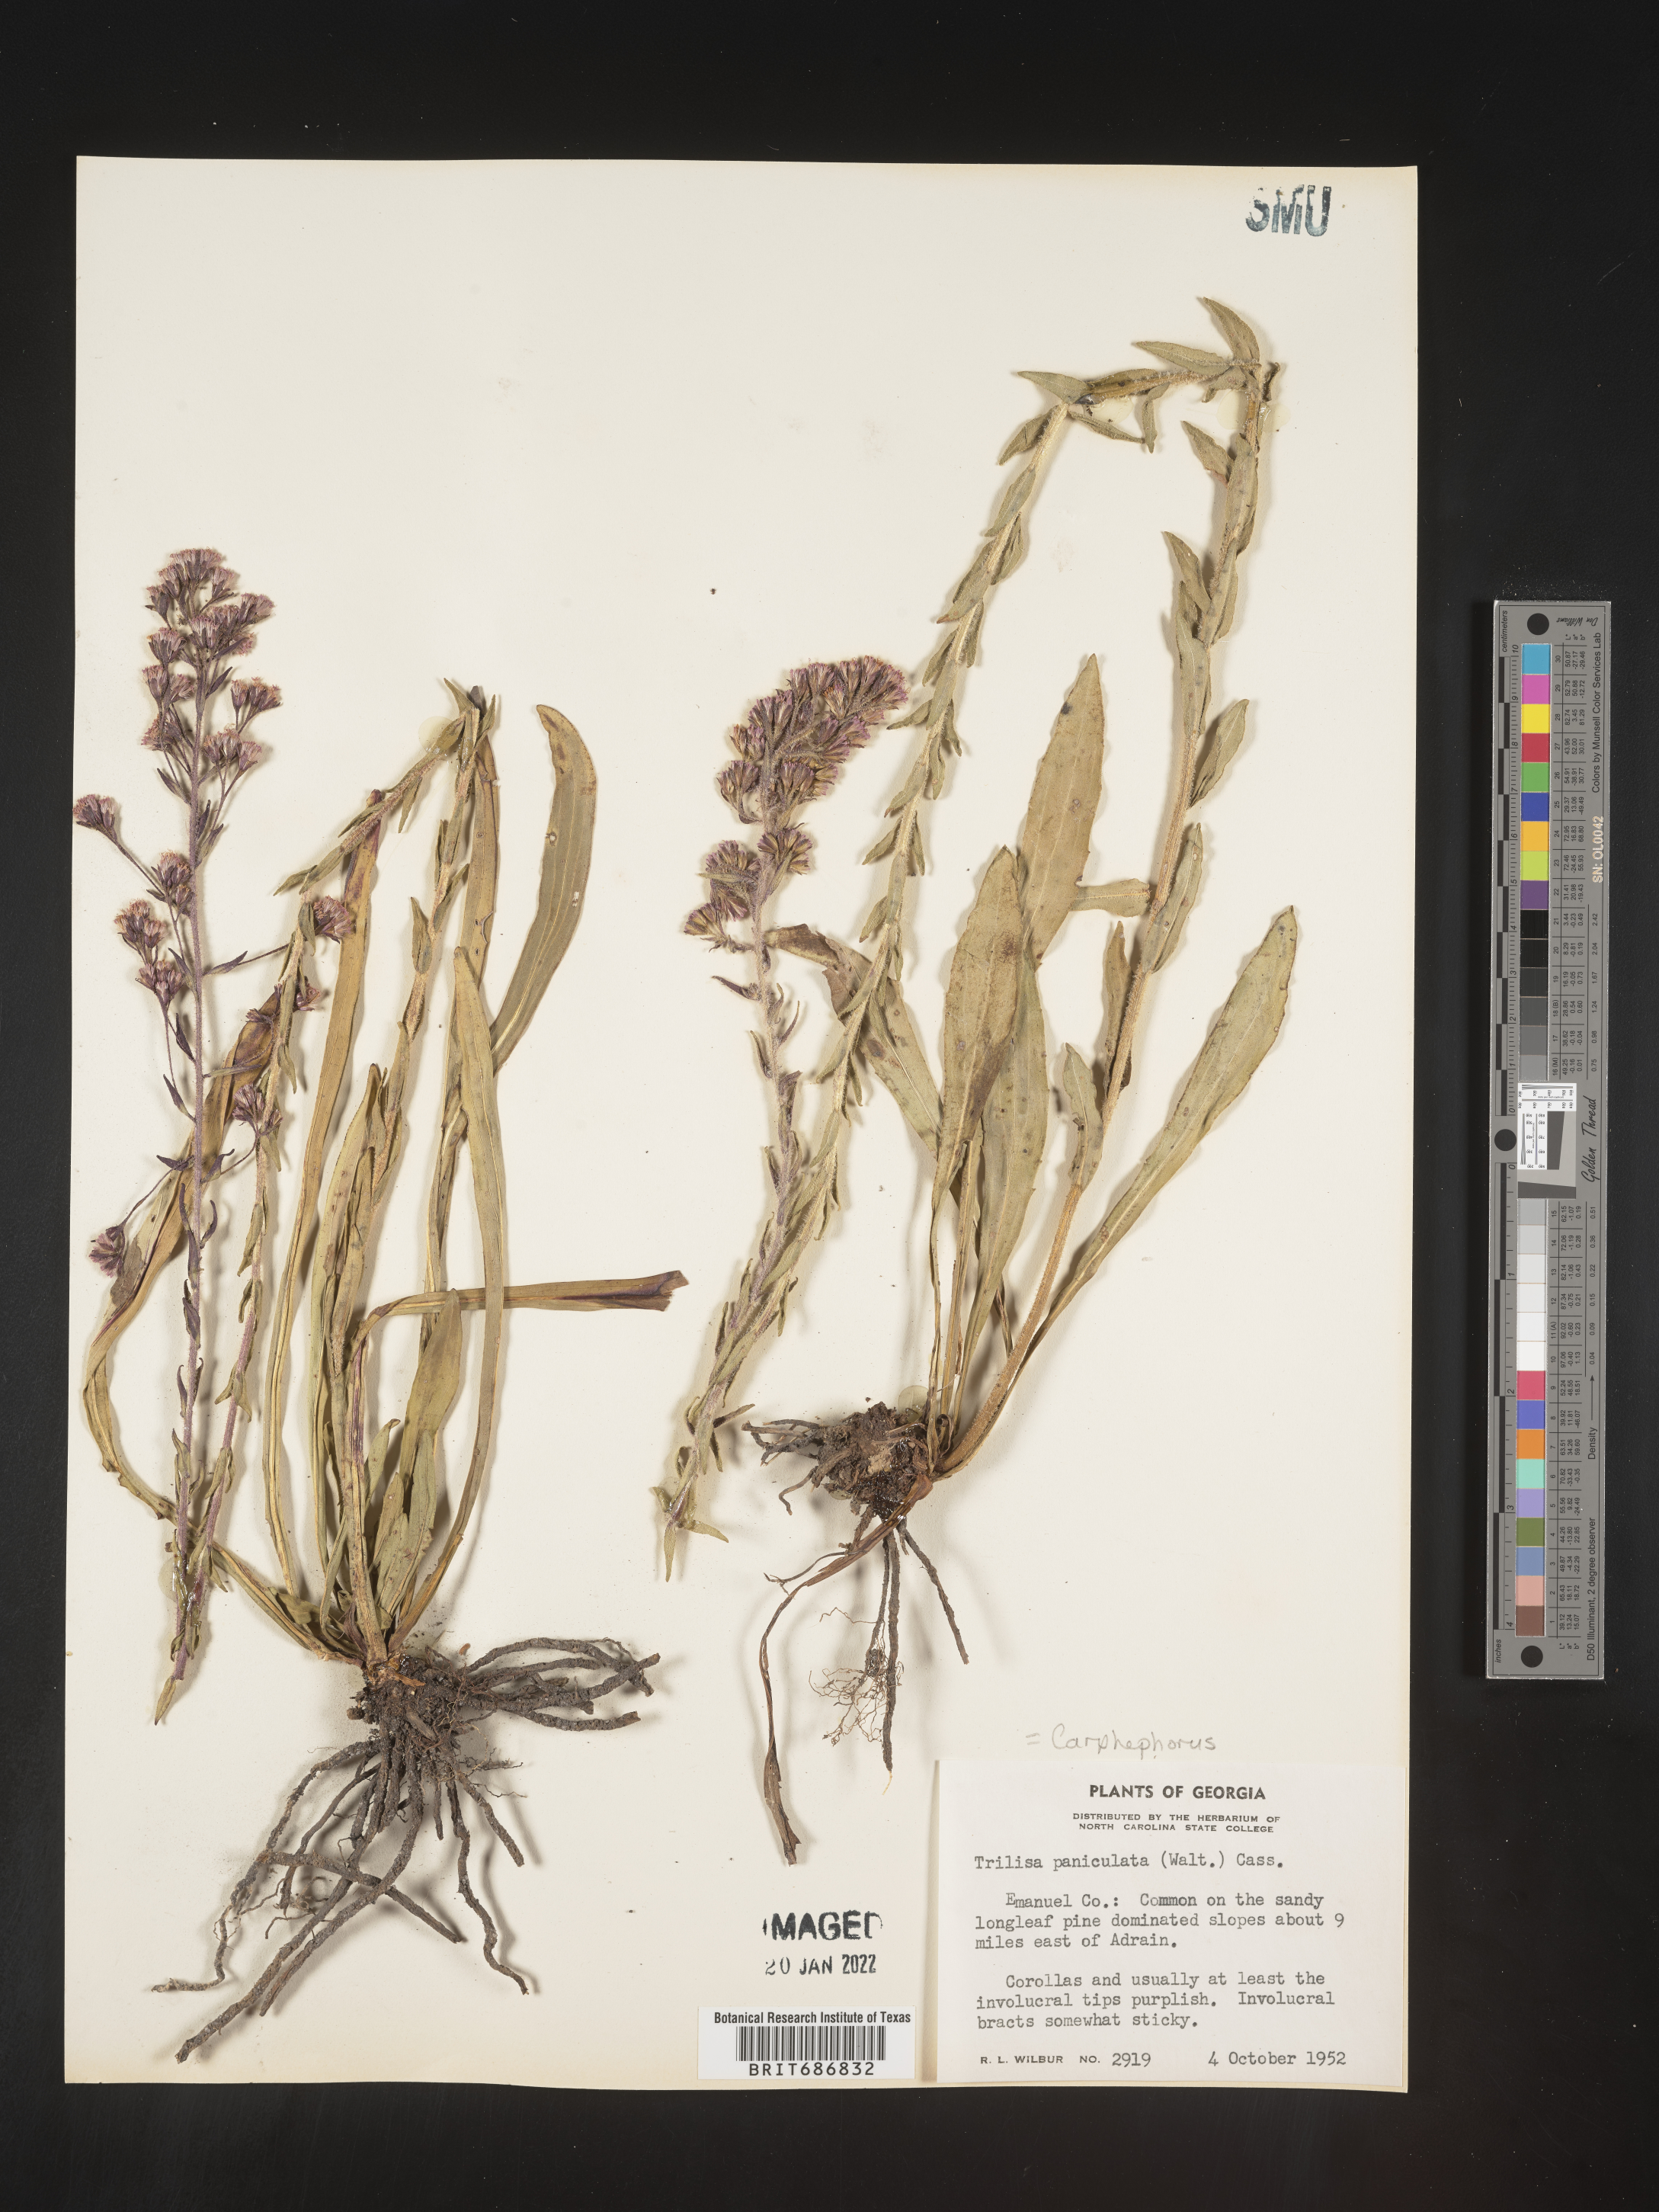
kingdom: Plantae
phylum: Tracheophyta
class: Magnoliopsida
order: Asterales
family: Asteraceae
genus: Carphephorus
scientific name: Carphephorus paniculatus
